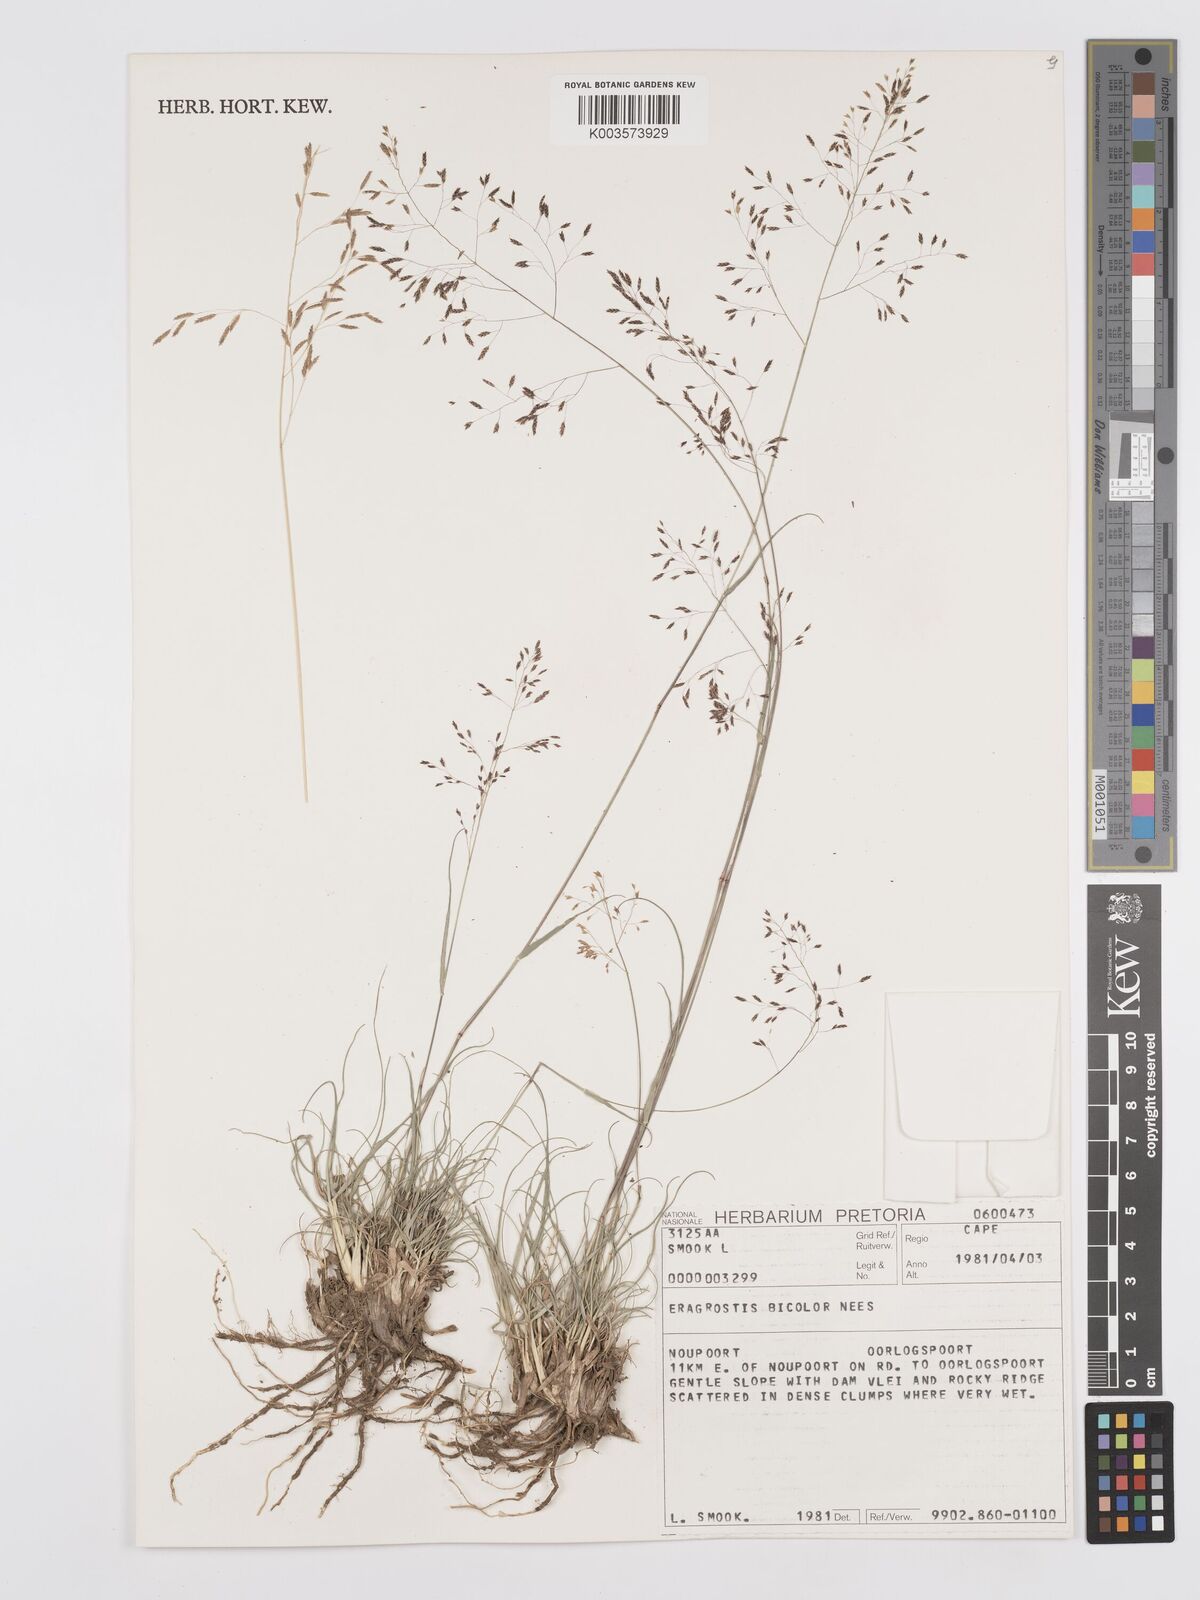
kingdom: Plantae
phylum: Tracheophyta
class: Liliopsida
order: Poales
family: Poaceae
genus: Eragrostis
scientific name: Eragrostis
